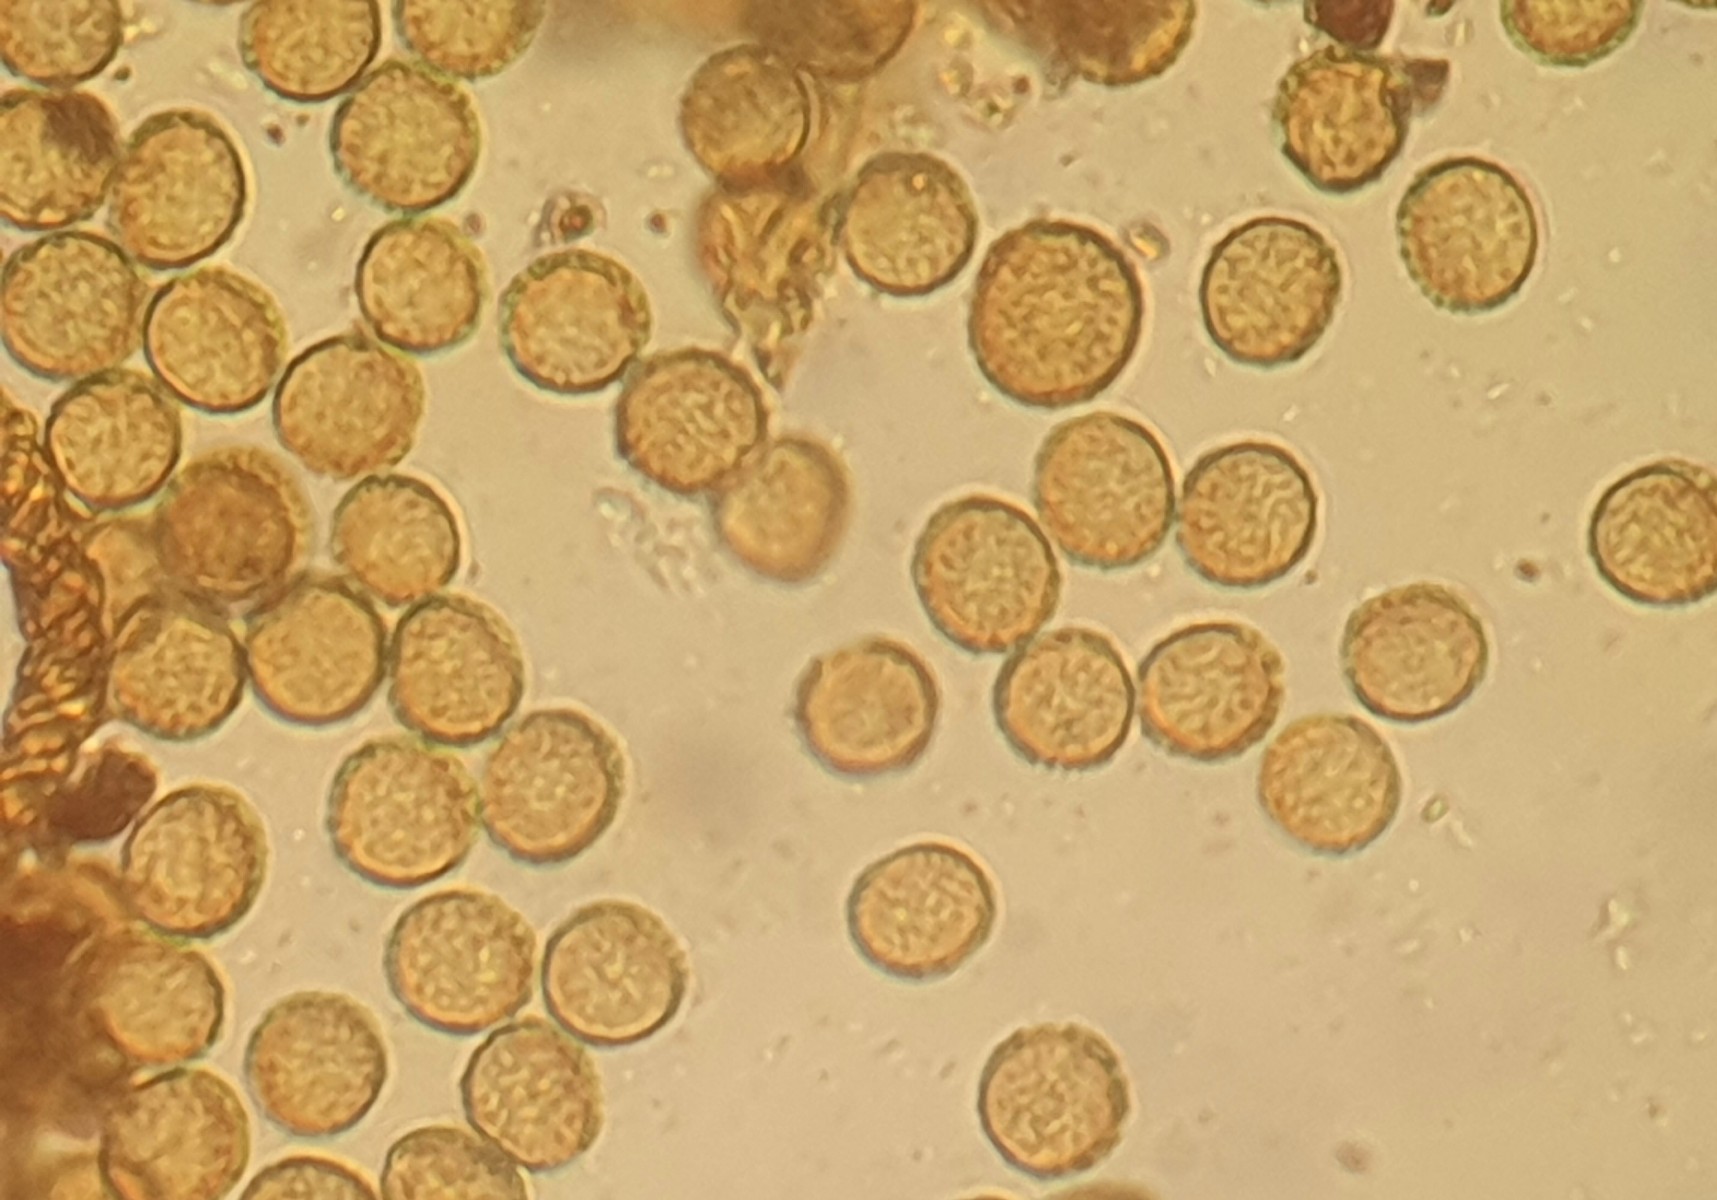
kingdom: Protozoa
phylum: Mycetozoa
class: Myxomycetes
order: Trichiales
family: Trichiaceae
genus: Metatrichia
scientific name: Metatrichia vesparia
